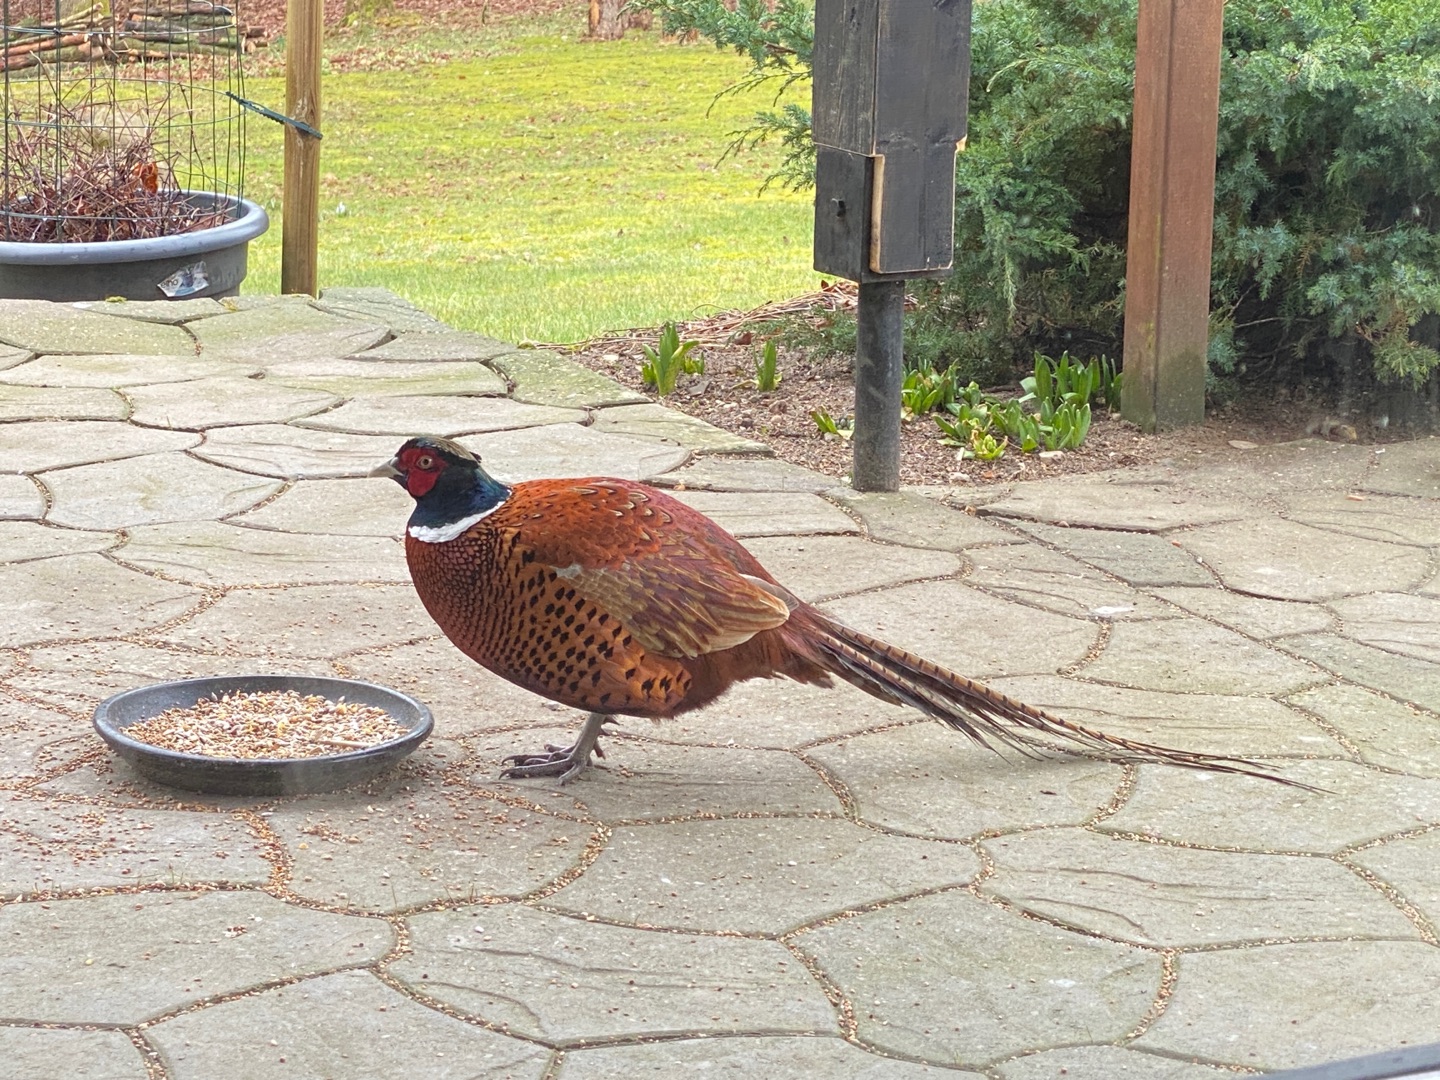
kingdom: Animalia
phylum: Chordata
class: Aves
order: Galliformes
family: Phasianidae
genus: Phasianus
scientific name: Phasianus colchicus
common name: Fasan
